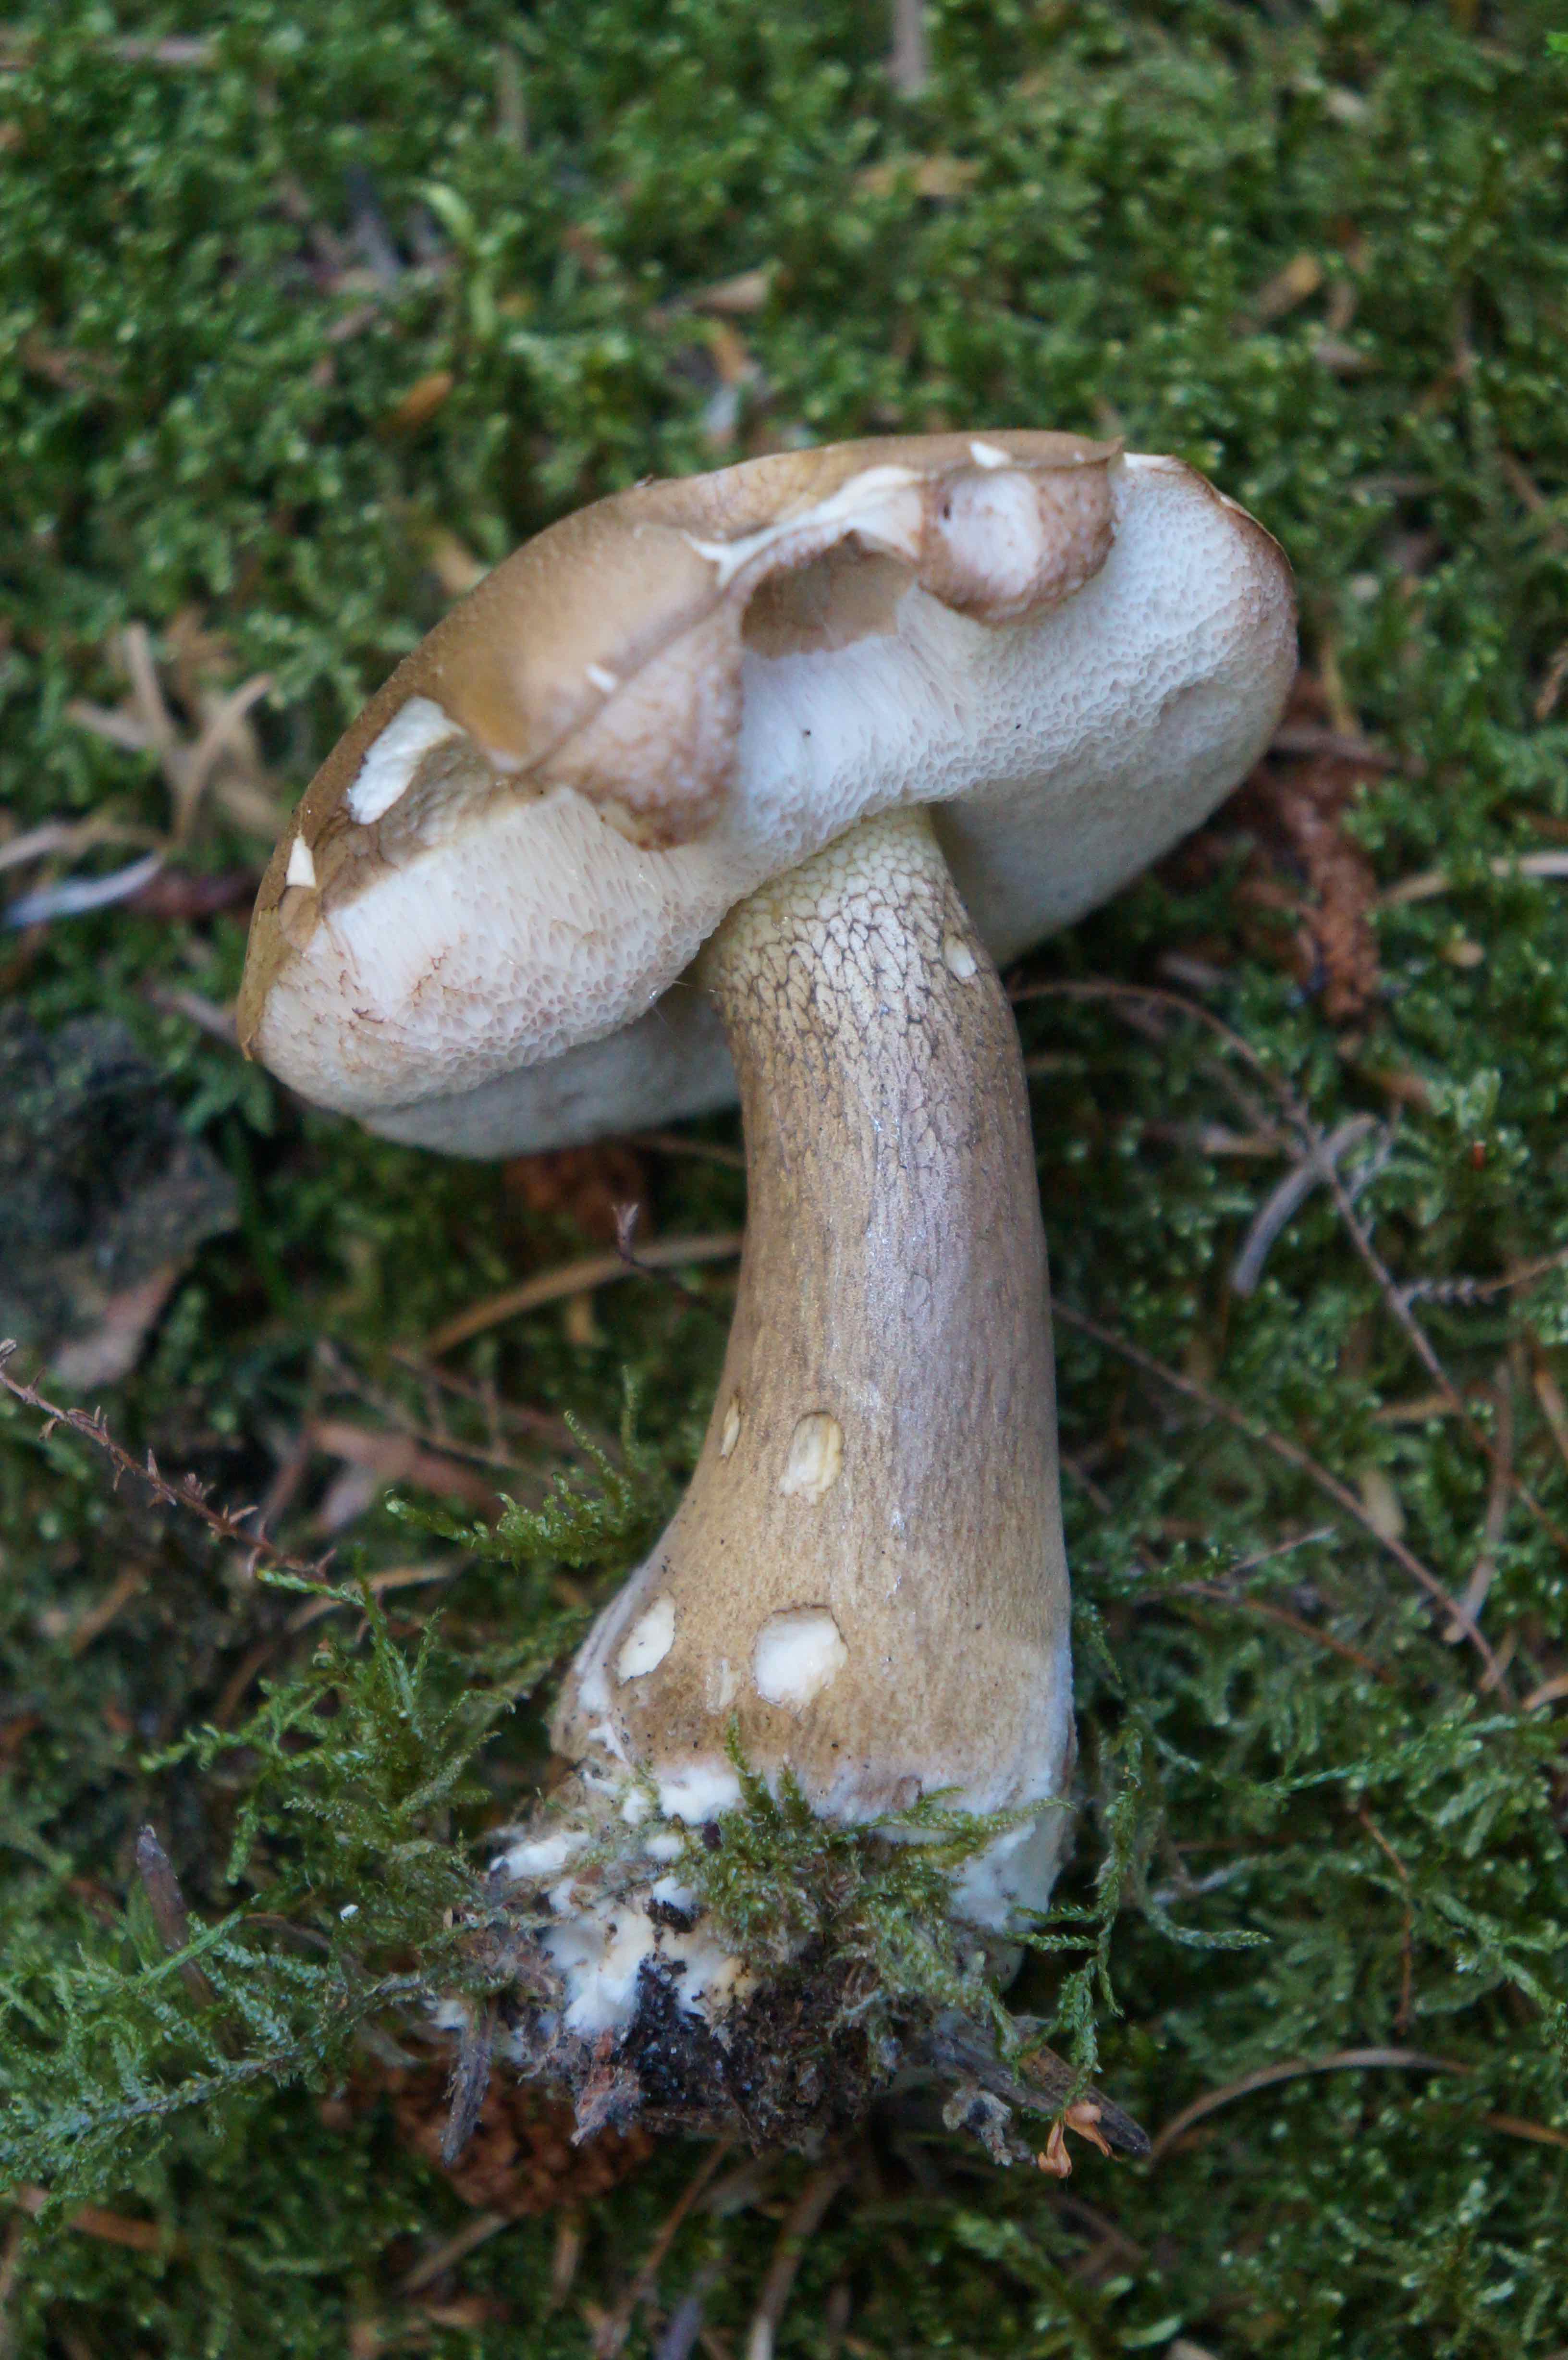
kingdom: Fungi
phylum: Basidiomycota
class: Agaricomycetes
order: Boletales
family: Boletaceae
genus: Tylopilus
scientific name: Tylopilus felleus
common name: galderørhat
